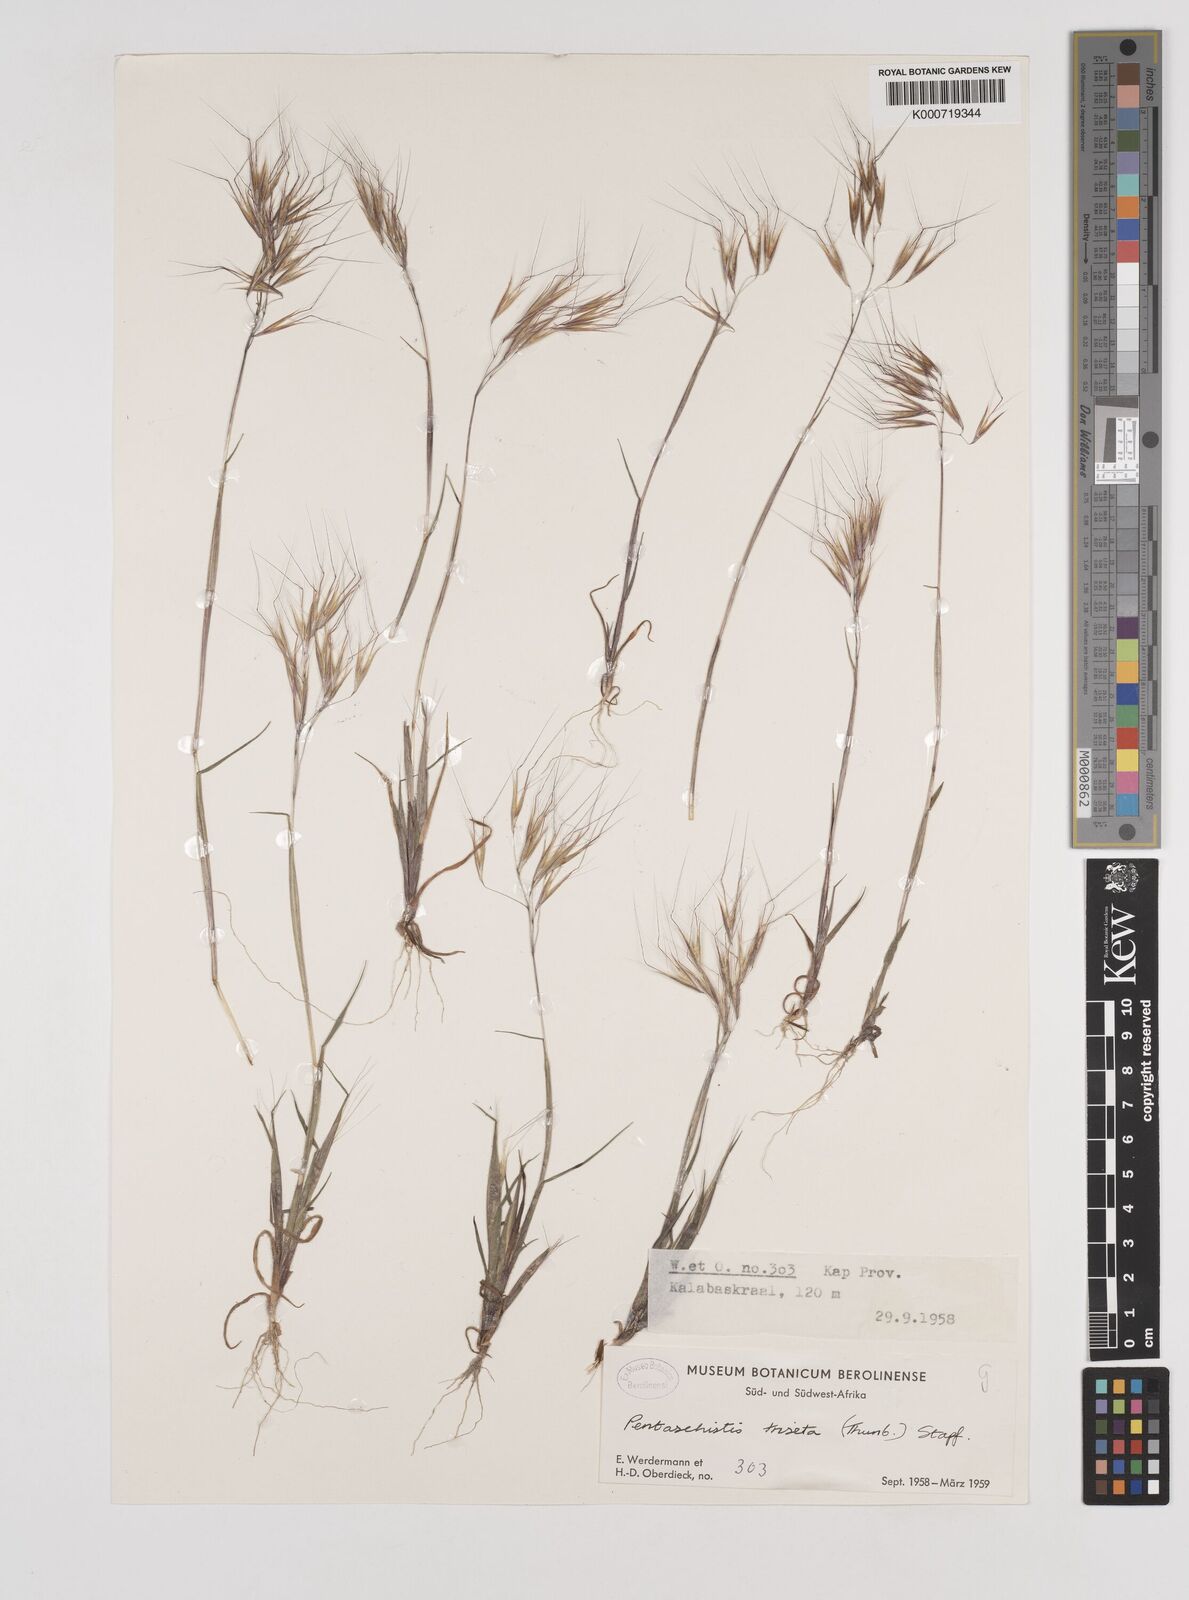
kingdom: Plantae
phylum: Tracheophyta
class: Liliopsida
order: Poales
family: Poaceae
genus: Pentameris
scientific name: Pentameris triseta
